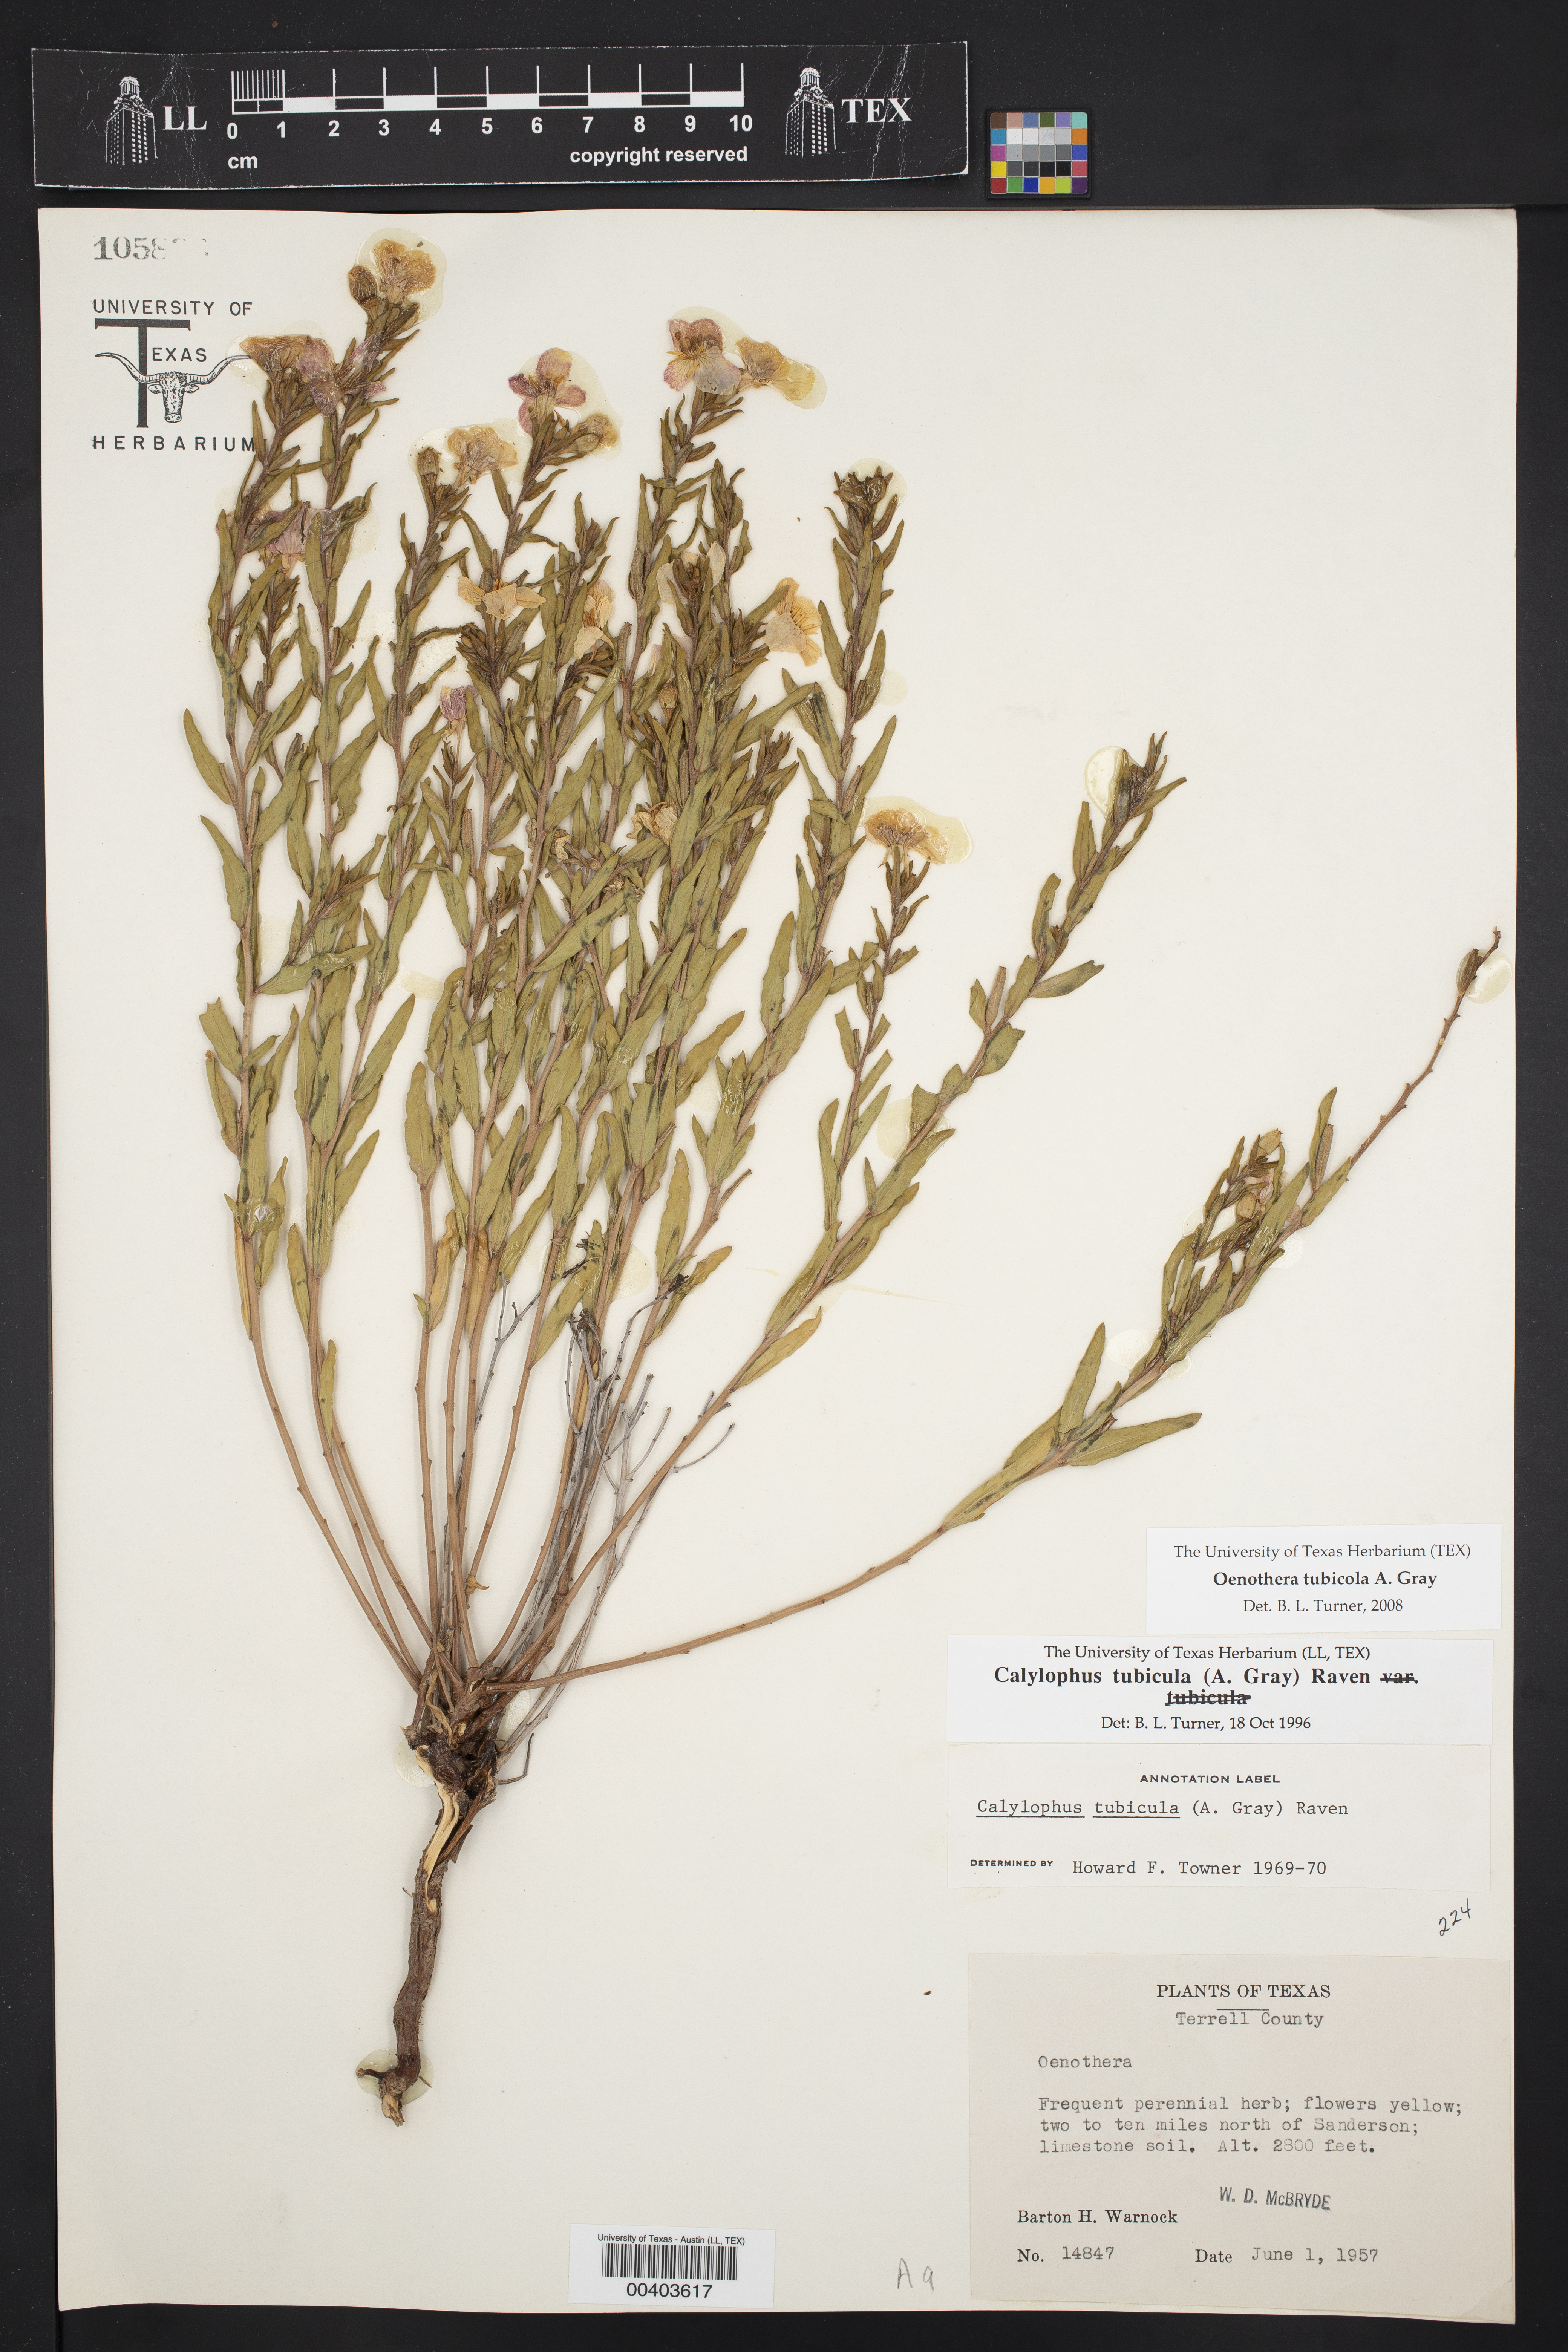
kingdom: Plantae
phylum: Tracheophyta
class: Magnoliopsida
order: Myrtales
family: Onagraceae
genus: Oenothera
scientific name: Oenothera tubicula
